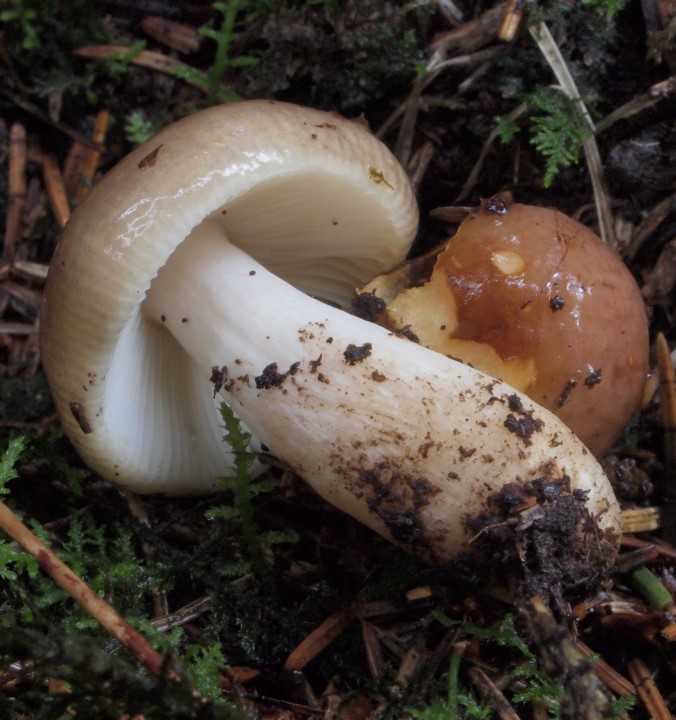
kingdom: Fungi
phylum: Basidiomycota
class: Agaricomycetes
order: Russulales
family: Russulaceae
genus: Russula
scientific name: Russula puellaris
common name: gulstokket skørhat
